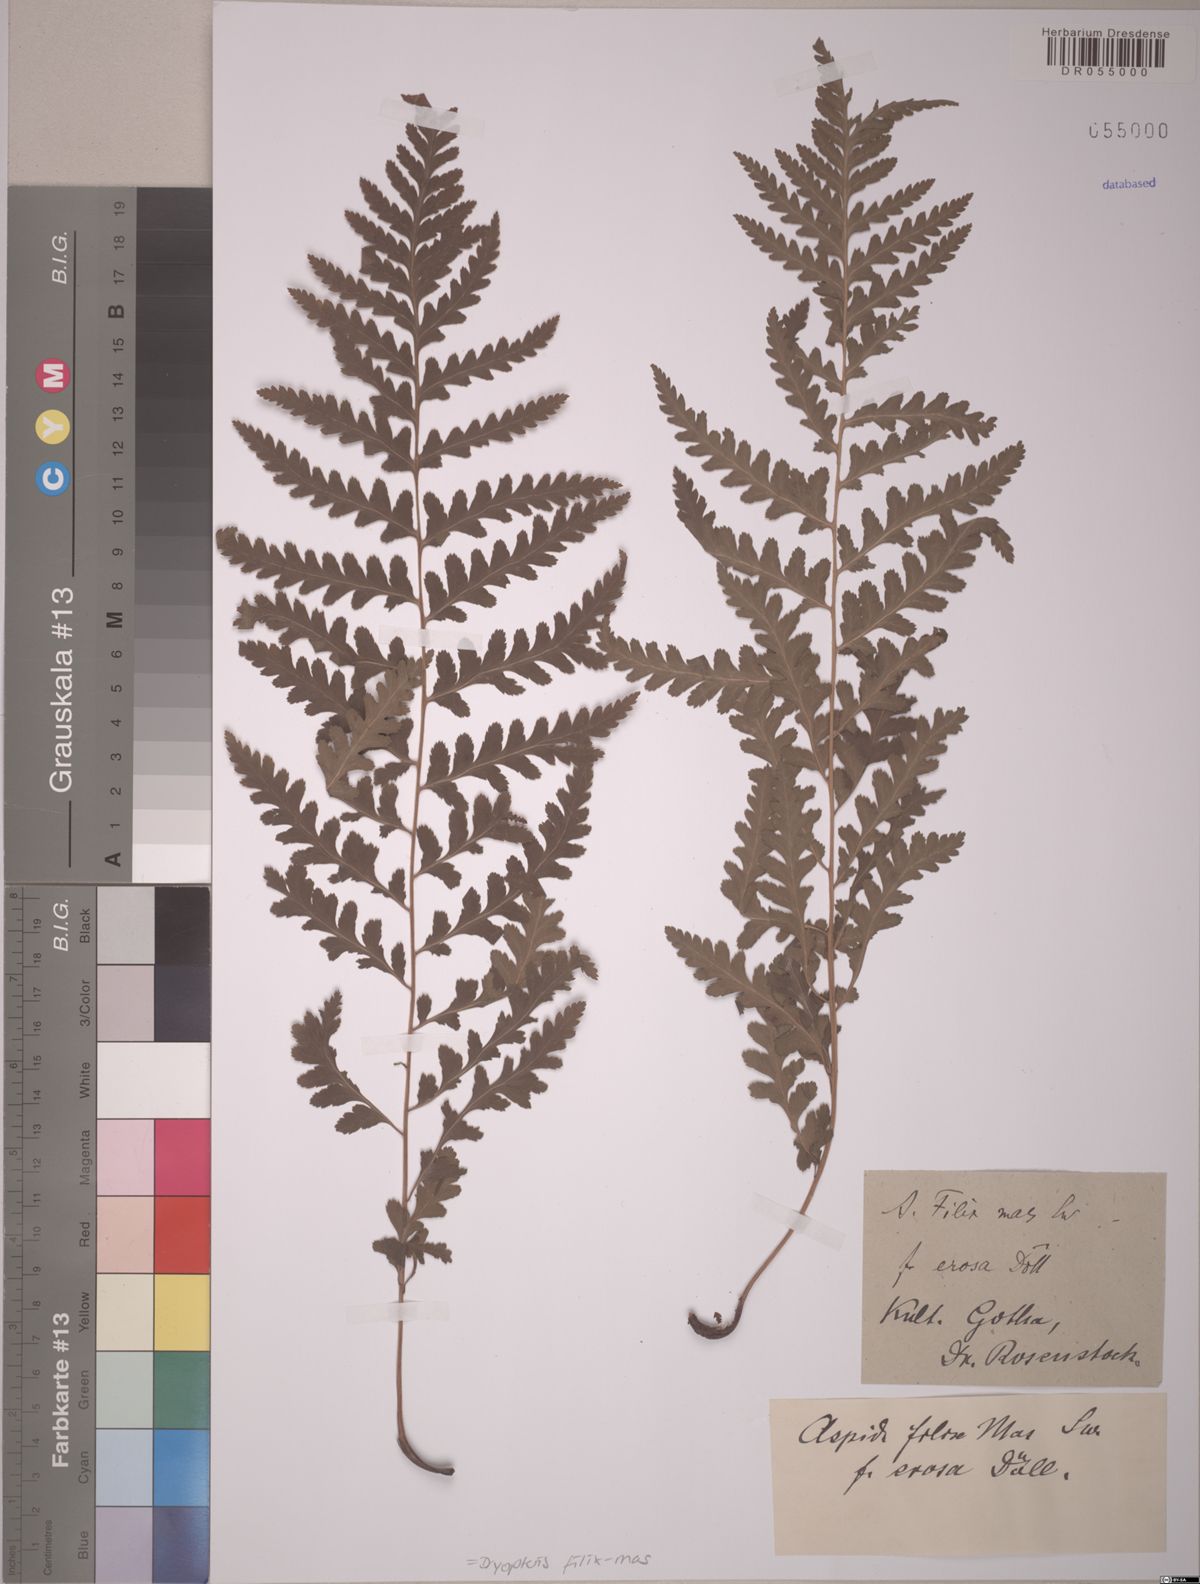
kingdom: Plantae
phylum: Tracheophyta
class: Polypodiopsida
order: Polypodiales
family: Dryopteridaceae
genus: Dryopteris
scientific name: Dryopteris filix-mas
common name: Male fern
